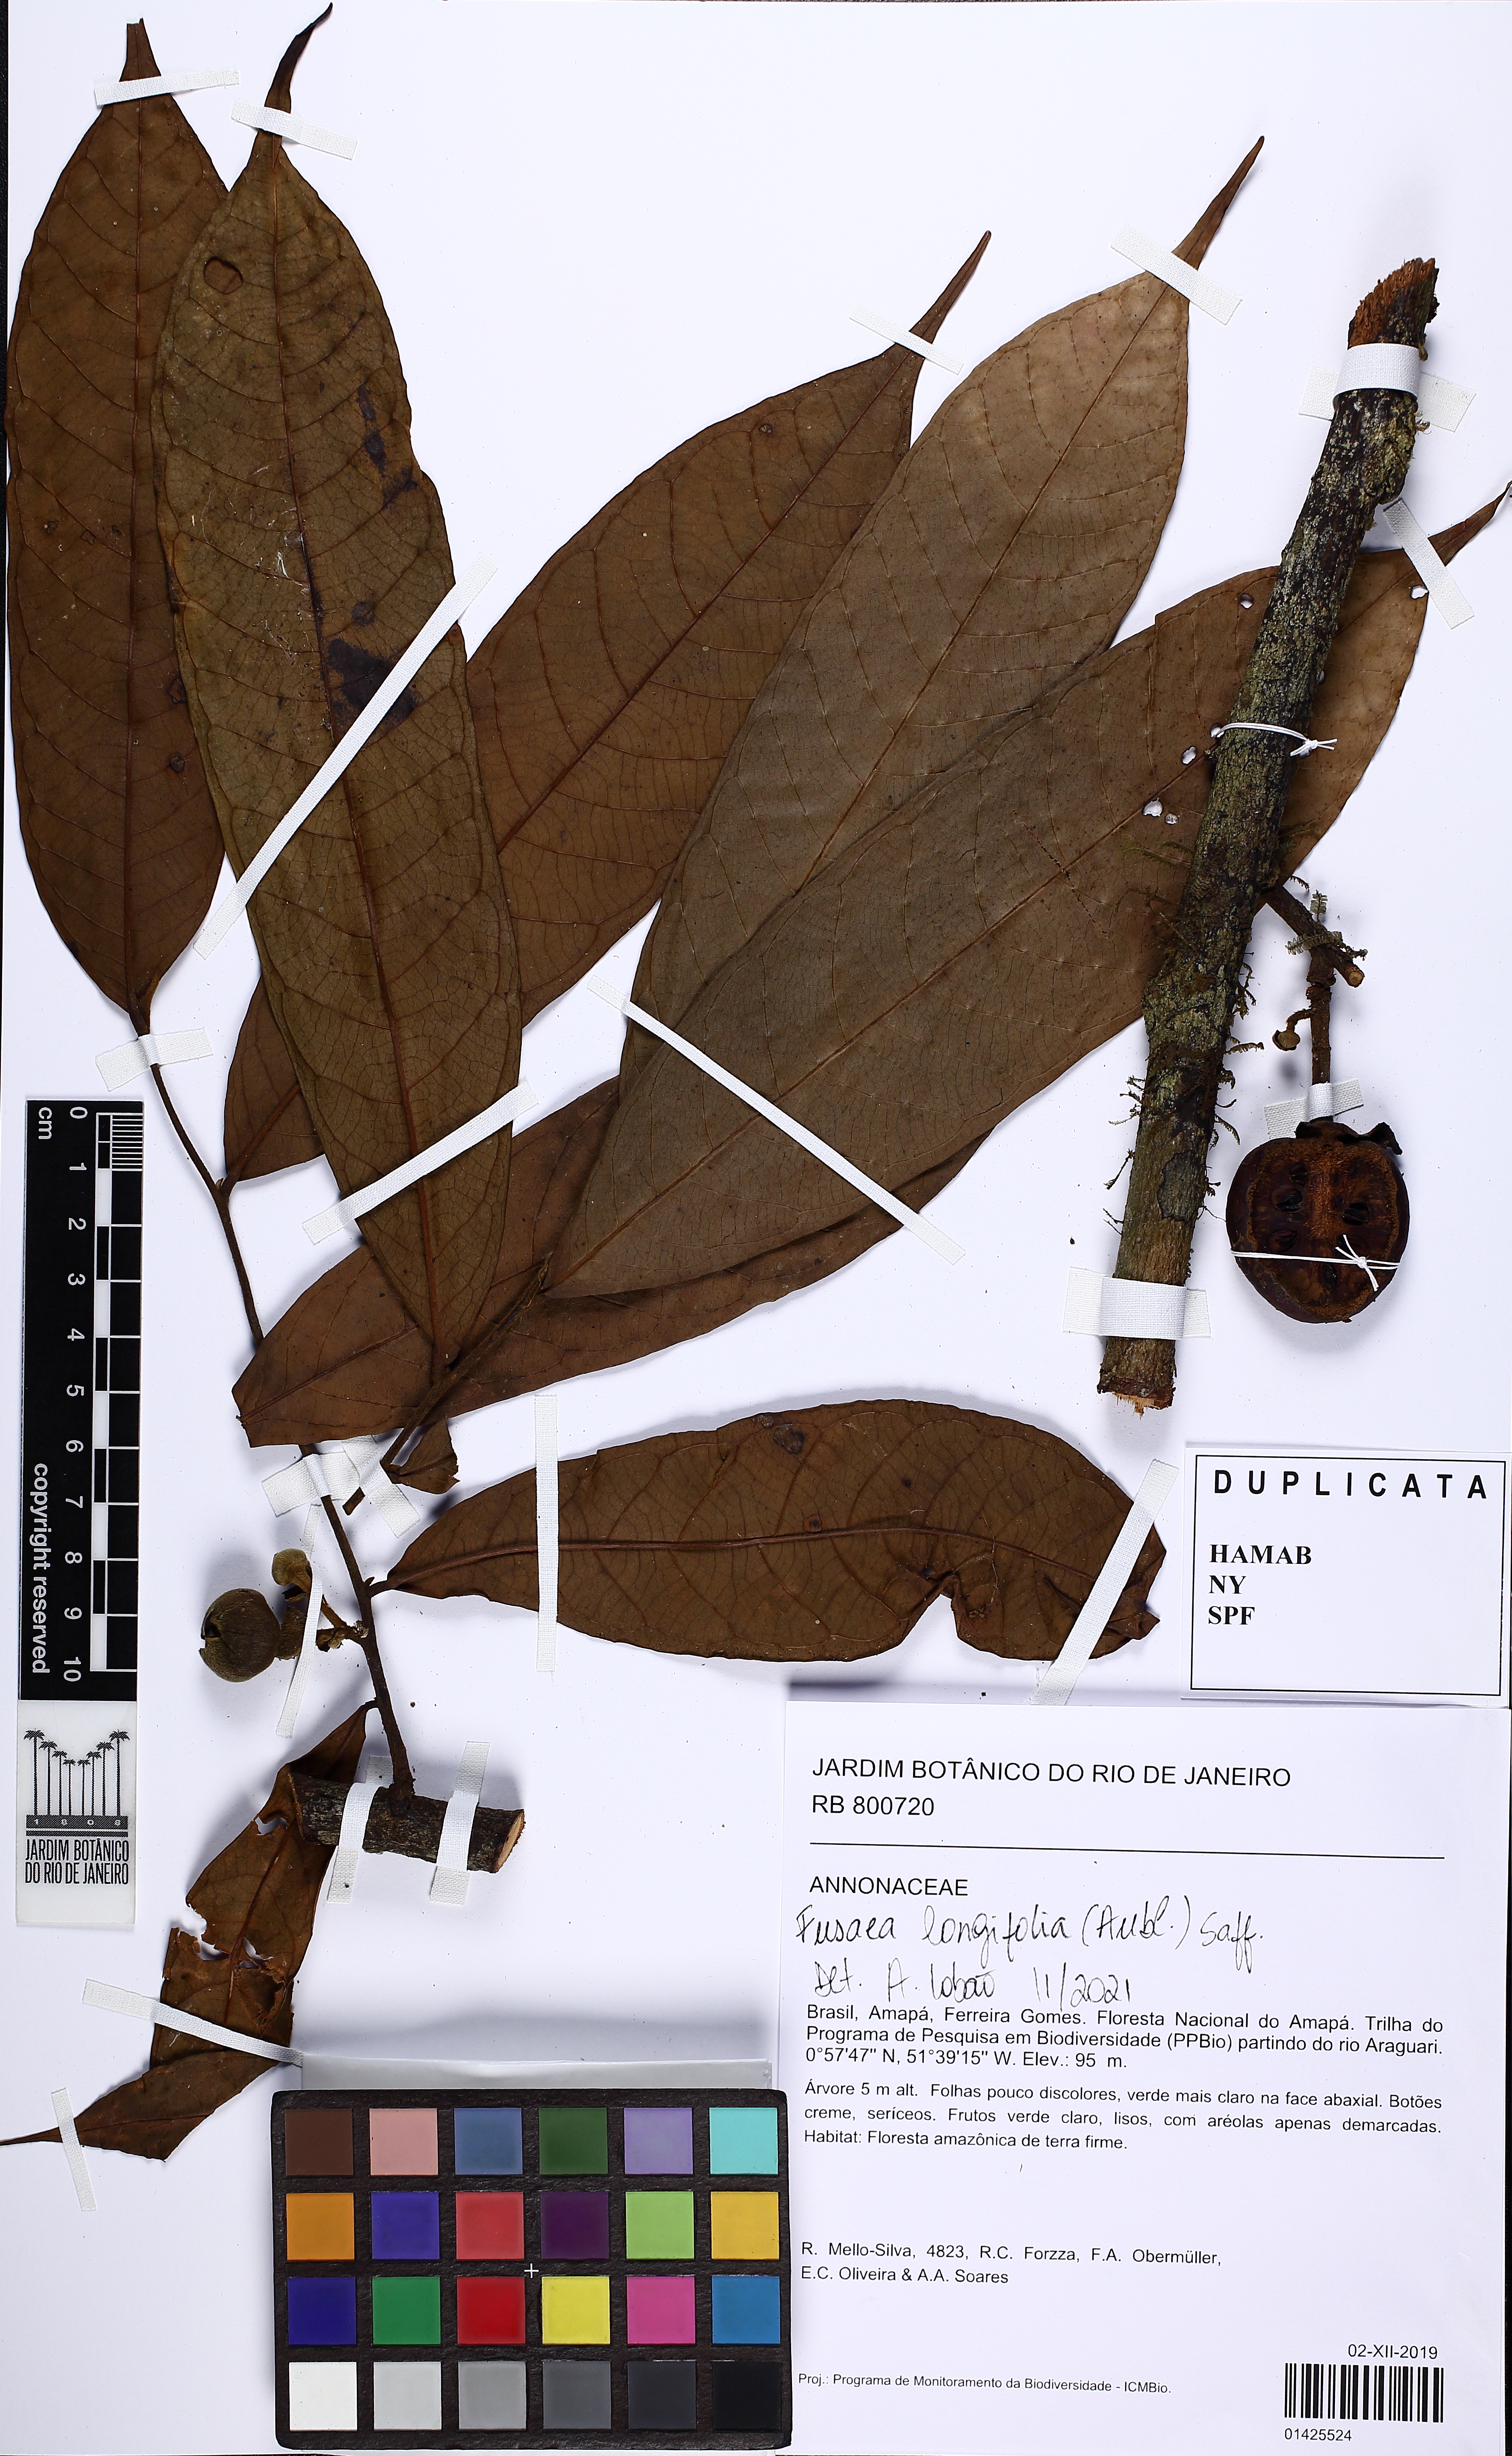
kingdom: Plantae
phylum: Tracheophyta
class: Magnoliopsida
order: Magnoliales
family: Annonaceae
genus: Fusaea
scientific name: Fusaea longifolia
